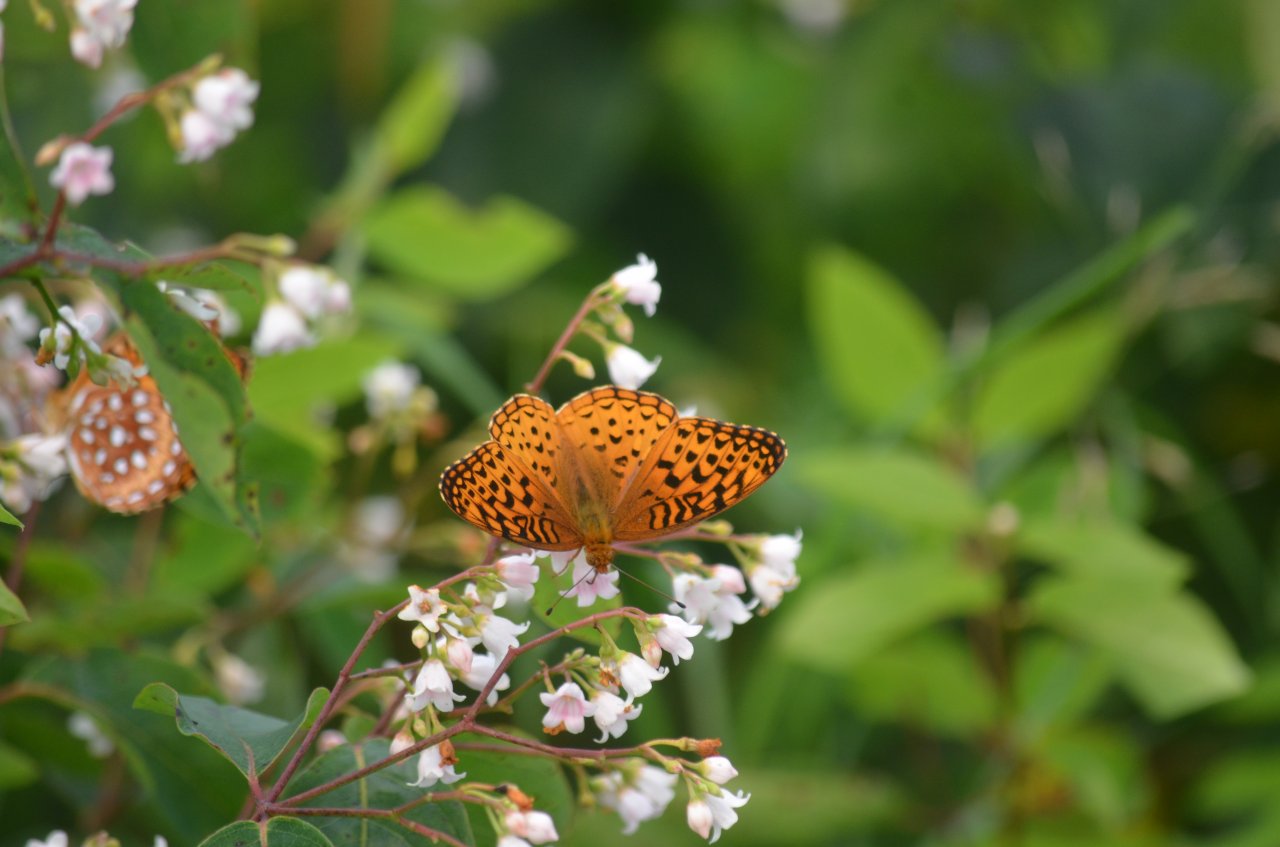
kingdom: Animalia
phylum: Arthropoda
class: Insecta
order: Lepidoptera
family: Nymphalidae
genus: Speyeria
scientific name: Speyeria aphrodite
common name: Aphrodite Fritillary
